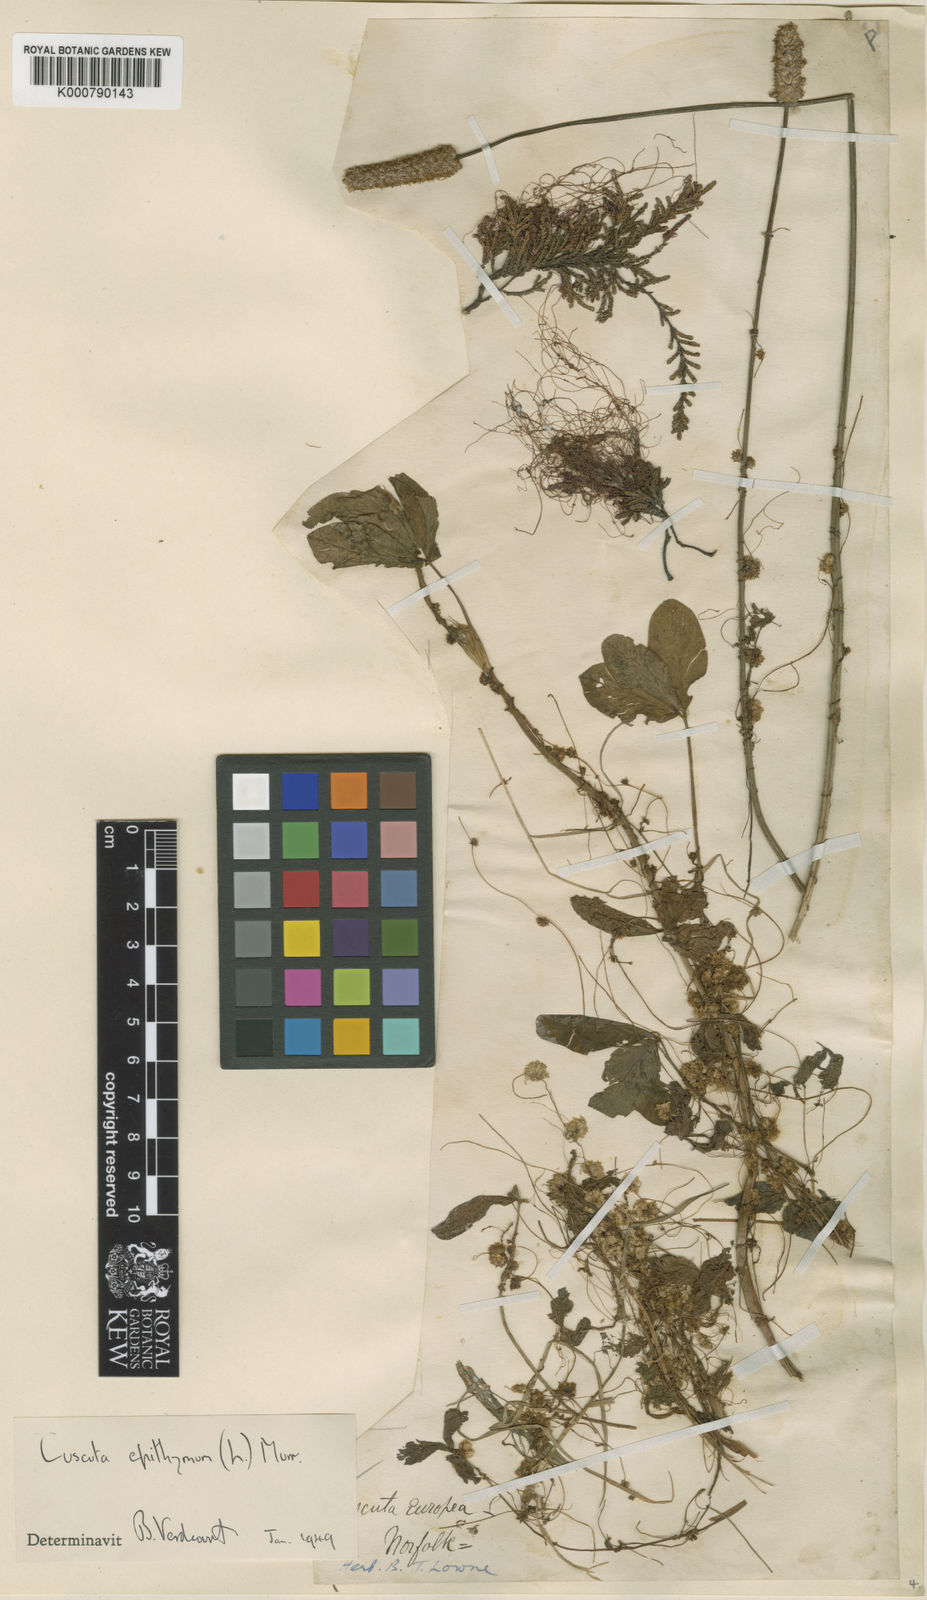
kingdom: Plantae
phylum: Tracheophyta
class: Magnoliopsida
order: Solanales
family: Convolvulaceae
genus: Cuscuta
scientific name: Cuscuta epithymum
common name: Clover dodder
